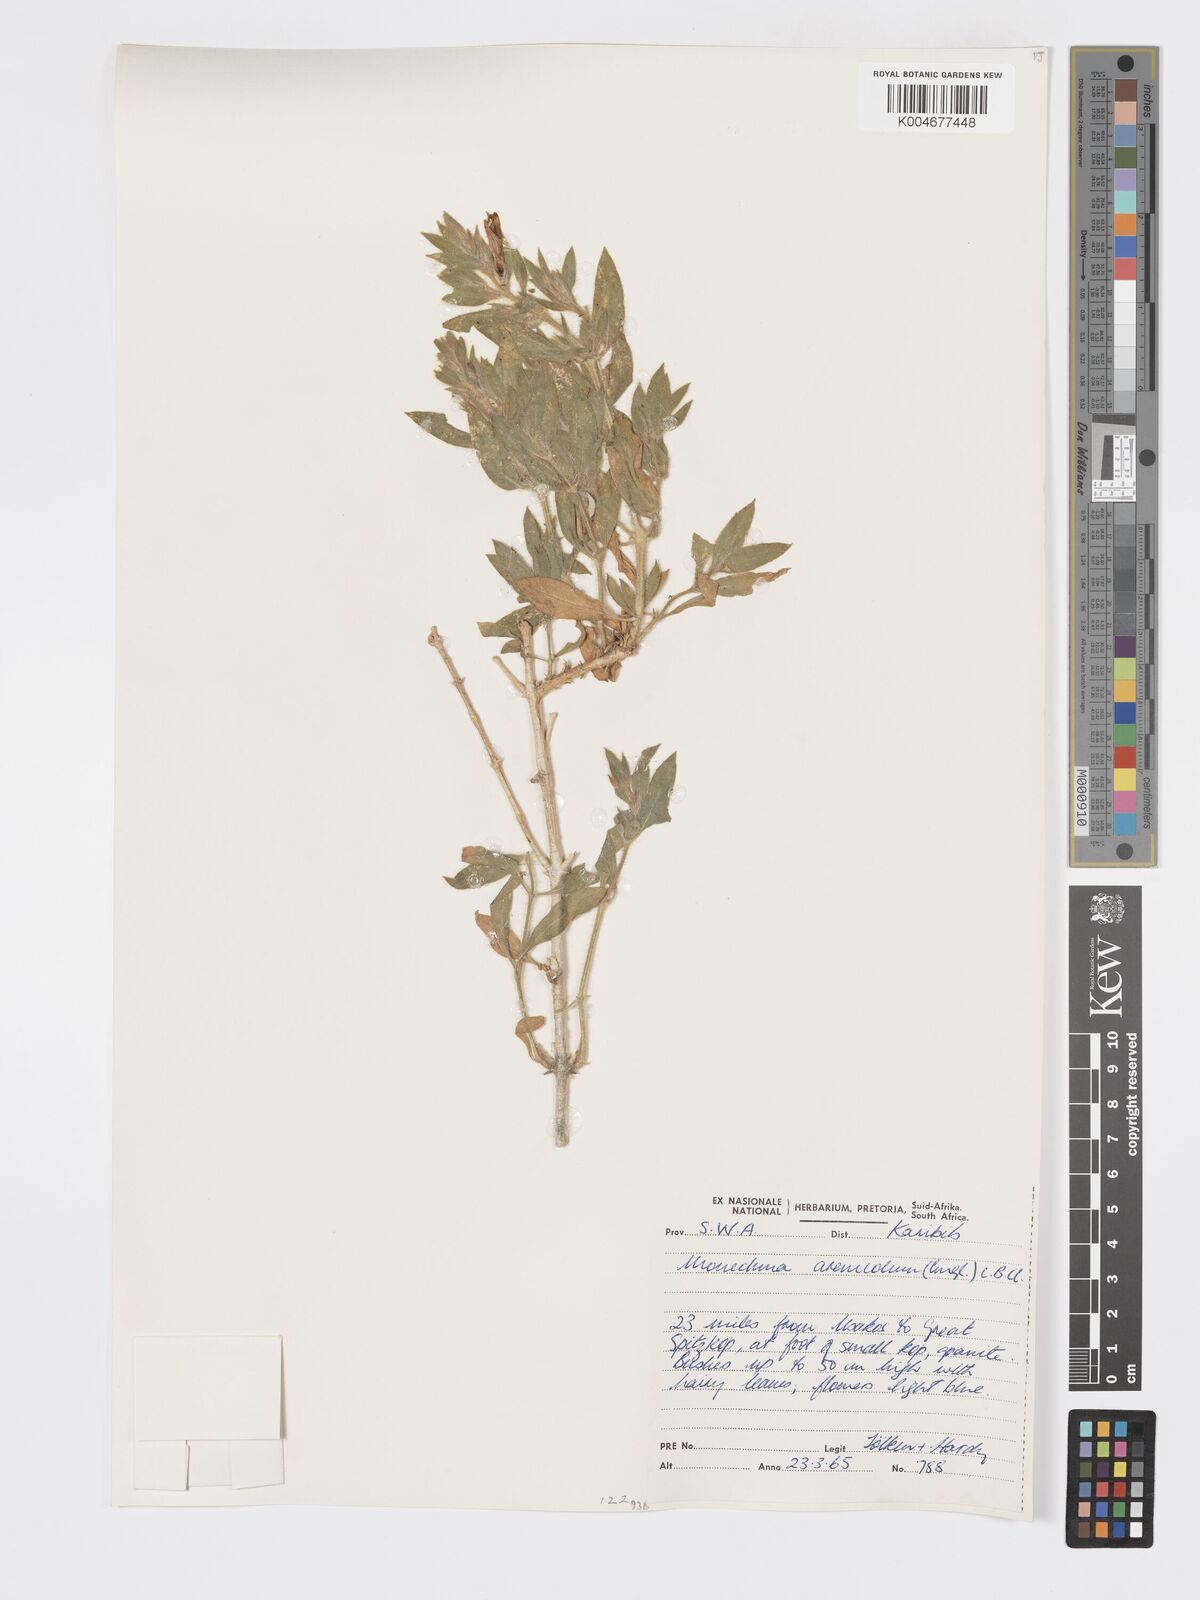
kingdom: Plantae
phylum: Tracheophyta
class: Magnoliopsida
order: Lamiales
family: Acanthaceae
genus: Pogonospermum
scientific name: Pogonospermum
